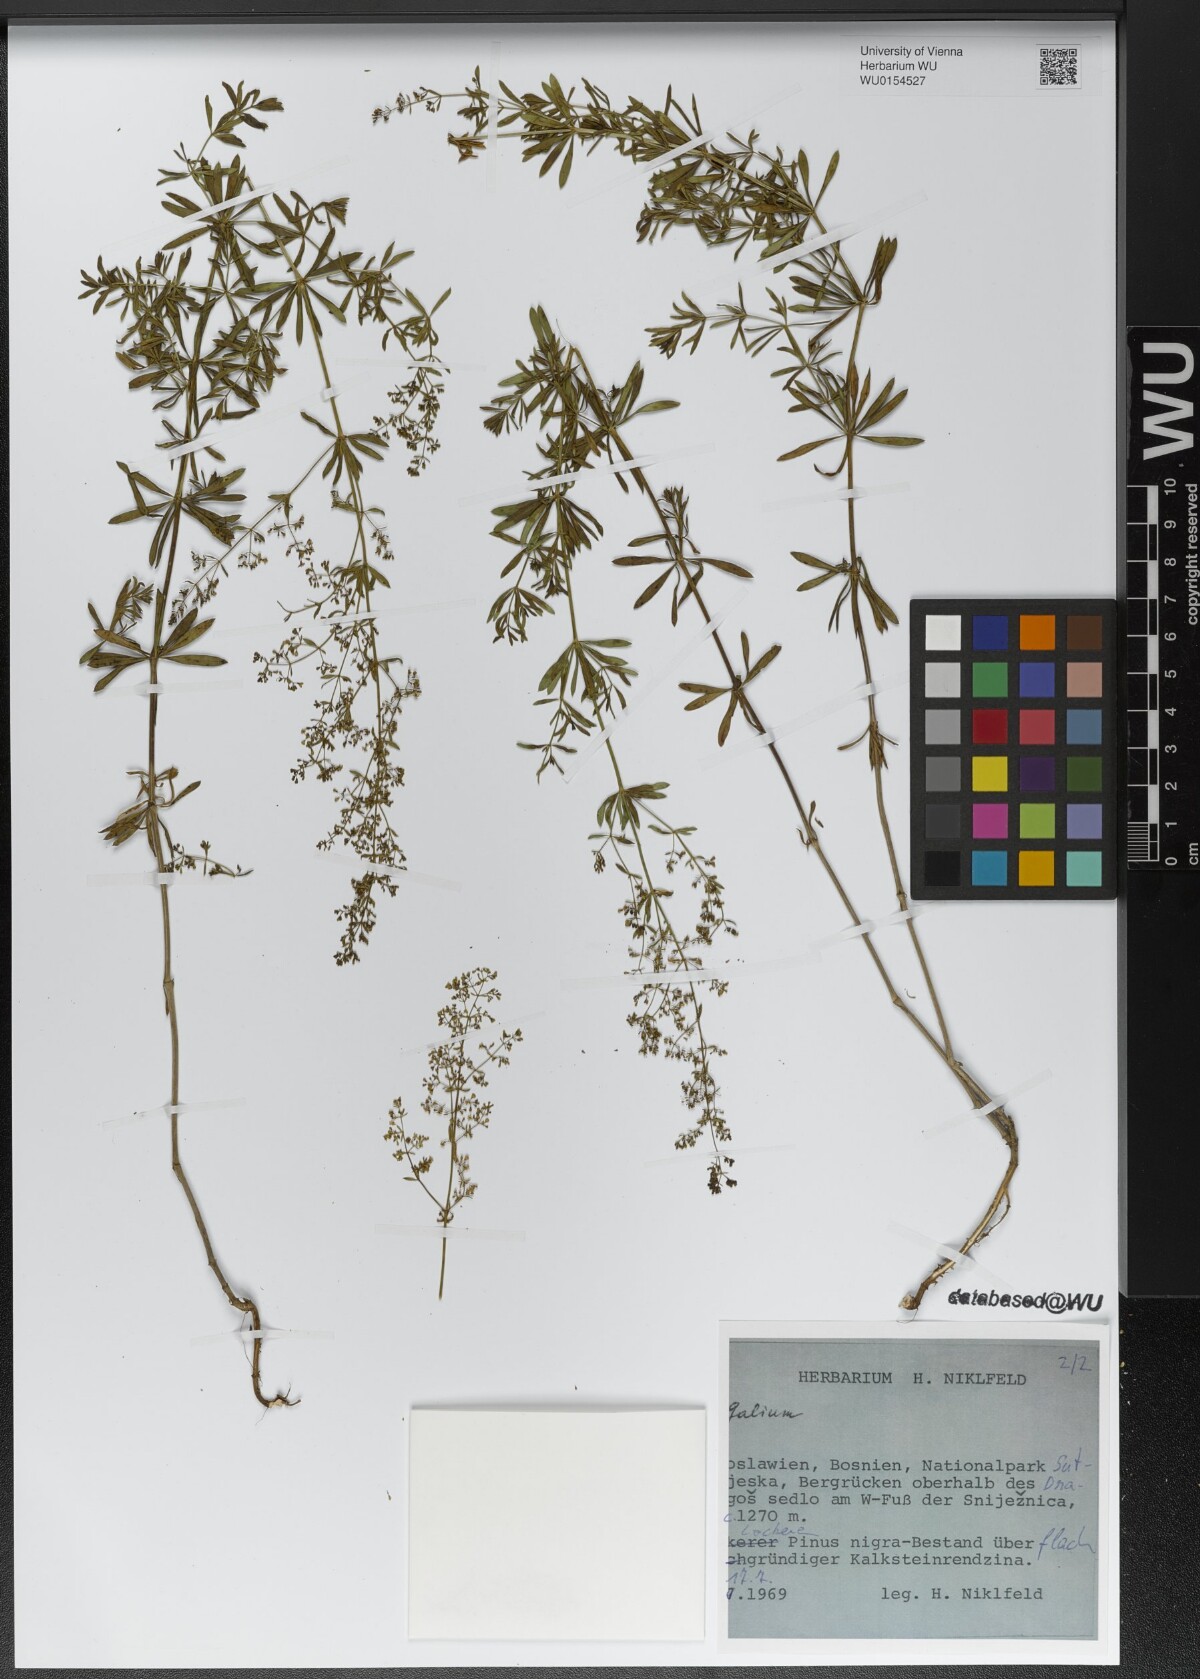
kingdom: Plantae
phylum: Tracheophyta
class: Magnoliopsida
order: Gentianales
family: Rubiaceae
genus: Galium
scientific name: Galium
